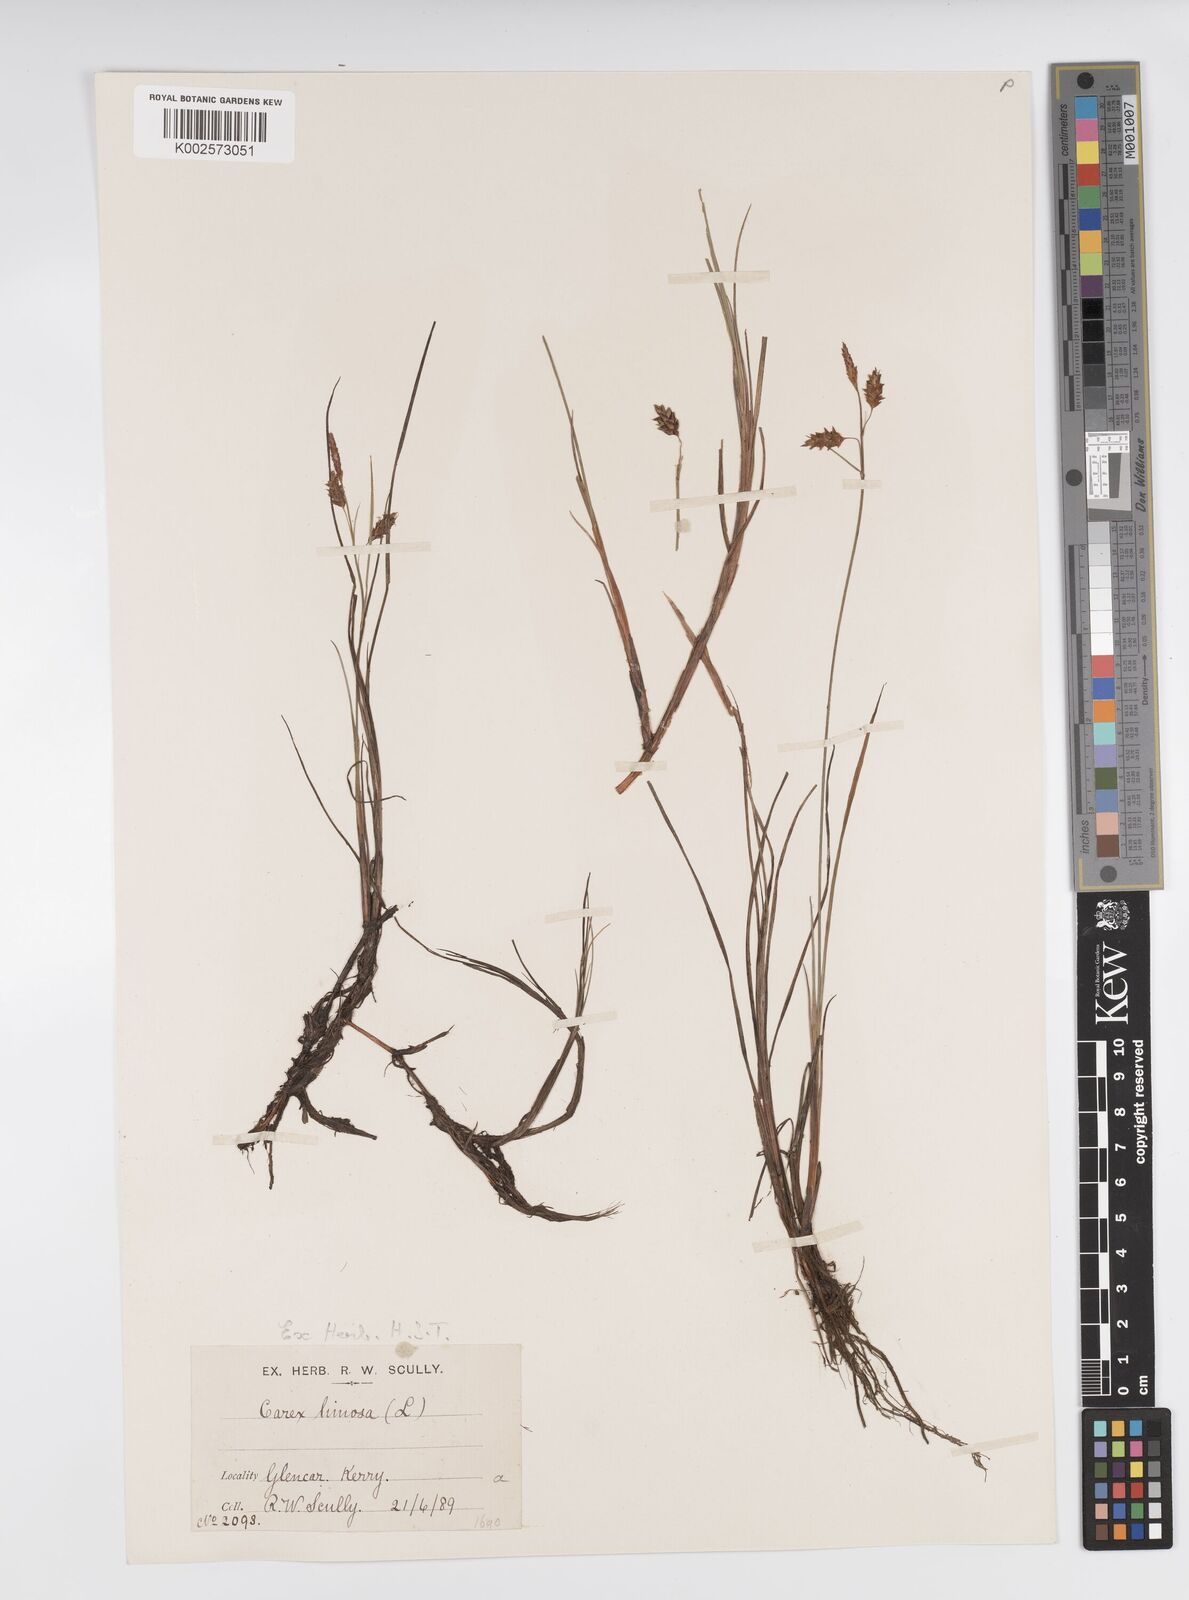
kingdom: Plantae
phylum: Tracheophyta
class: Liliopsida
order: Poales
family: Cyperaceae
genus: Carex
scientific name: Carex limosa
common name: Bog sedge
